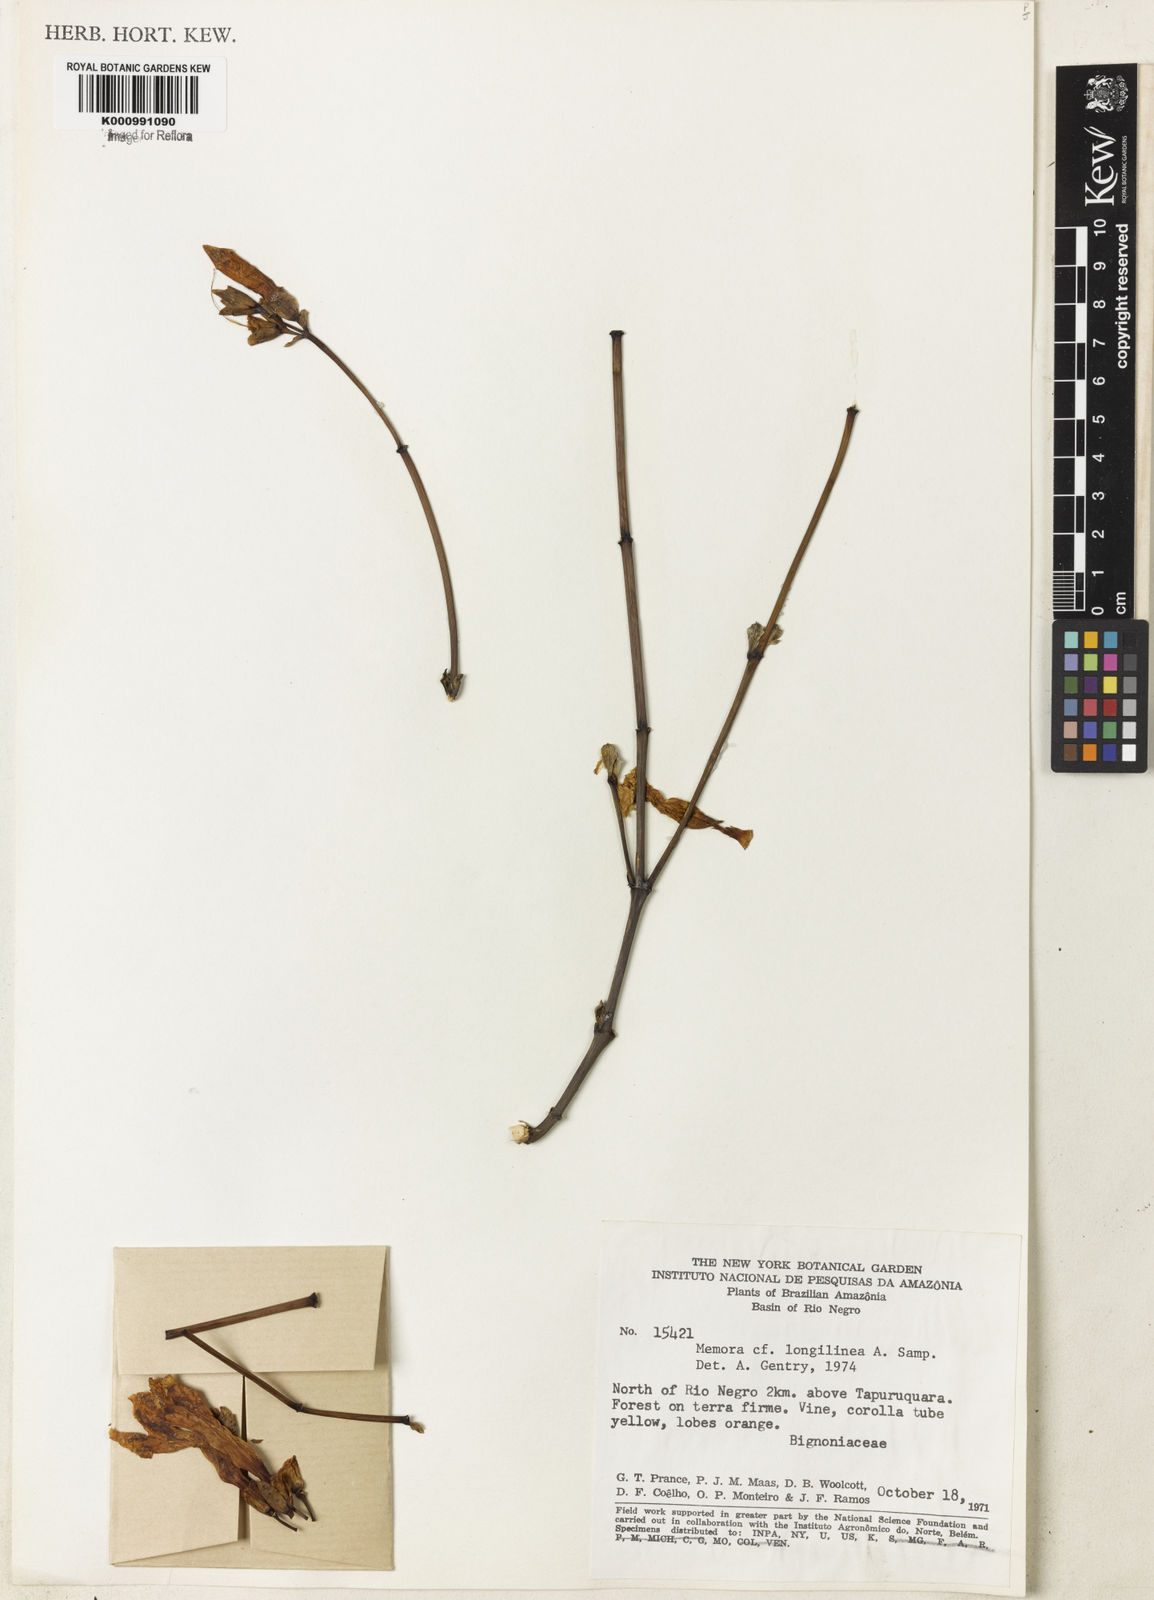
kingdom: Plantae
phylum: Tracheophyta
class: Magnoliopsida
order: Lamiales
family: Bignoniaceae
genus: Adenocalymma
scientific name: Adenocalymma longilineum
